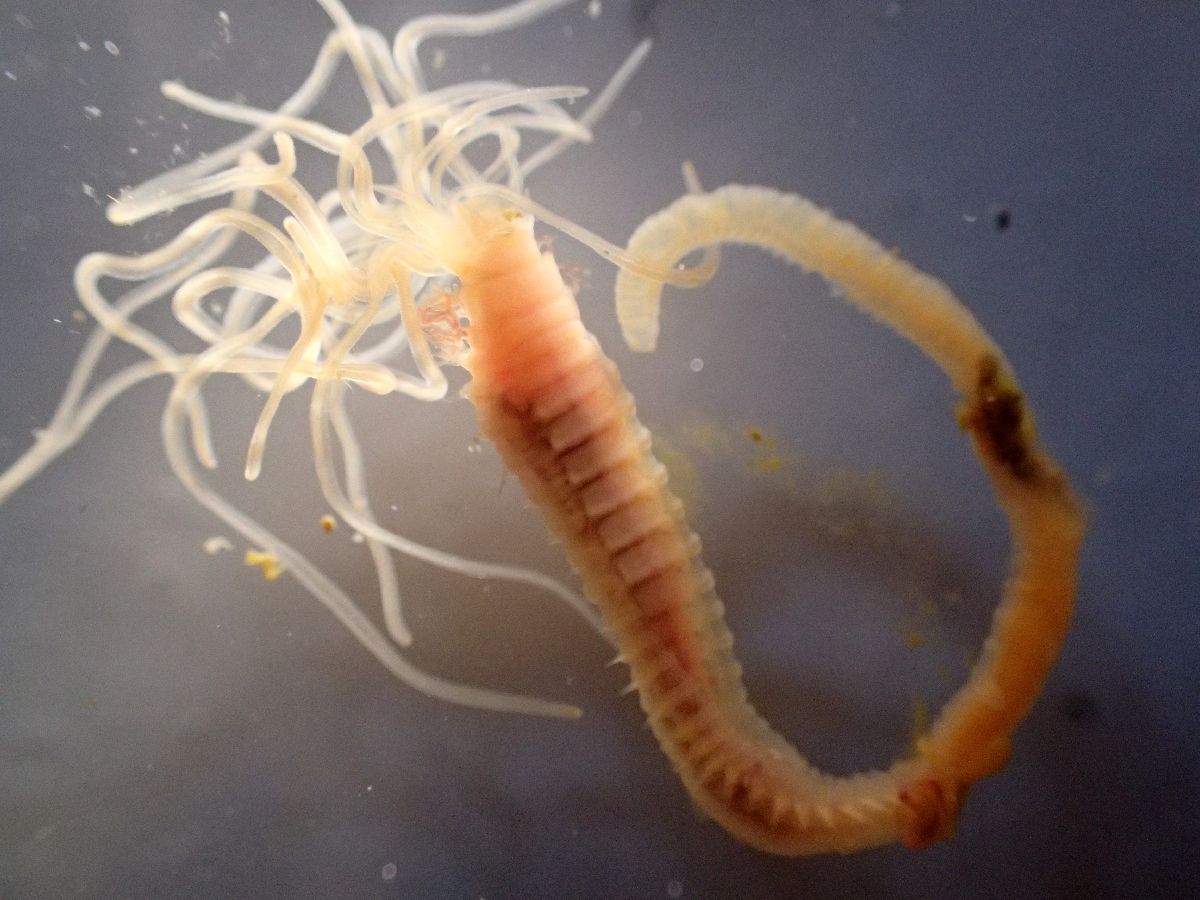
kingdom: Animalia
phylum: Annelida
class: Polychaeta
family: Terebellidae
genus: Amphitrite
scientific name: Amphitrite figulus
